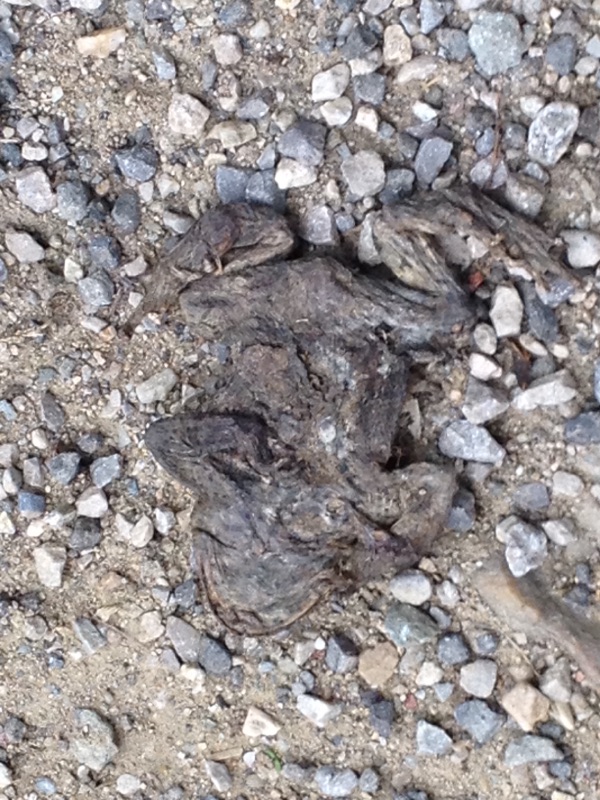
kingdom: Animalia
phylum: Chordata
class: Amphibia
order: Anura
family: Bufonidae
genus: Bufo
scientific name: Bufo bufo
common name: Common toad
